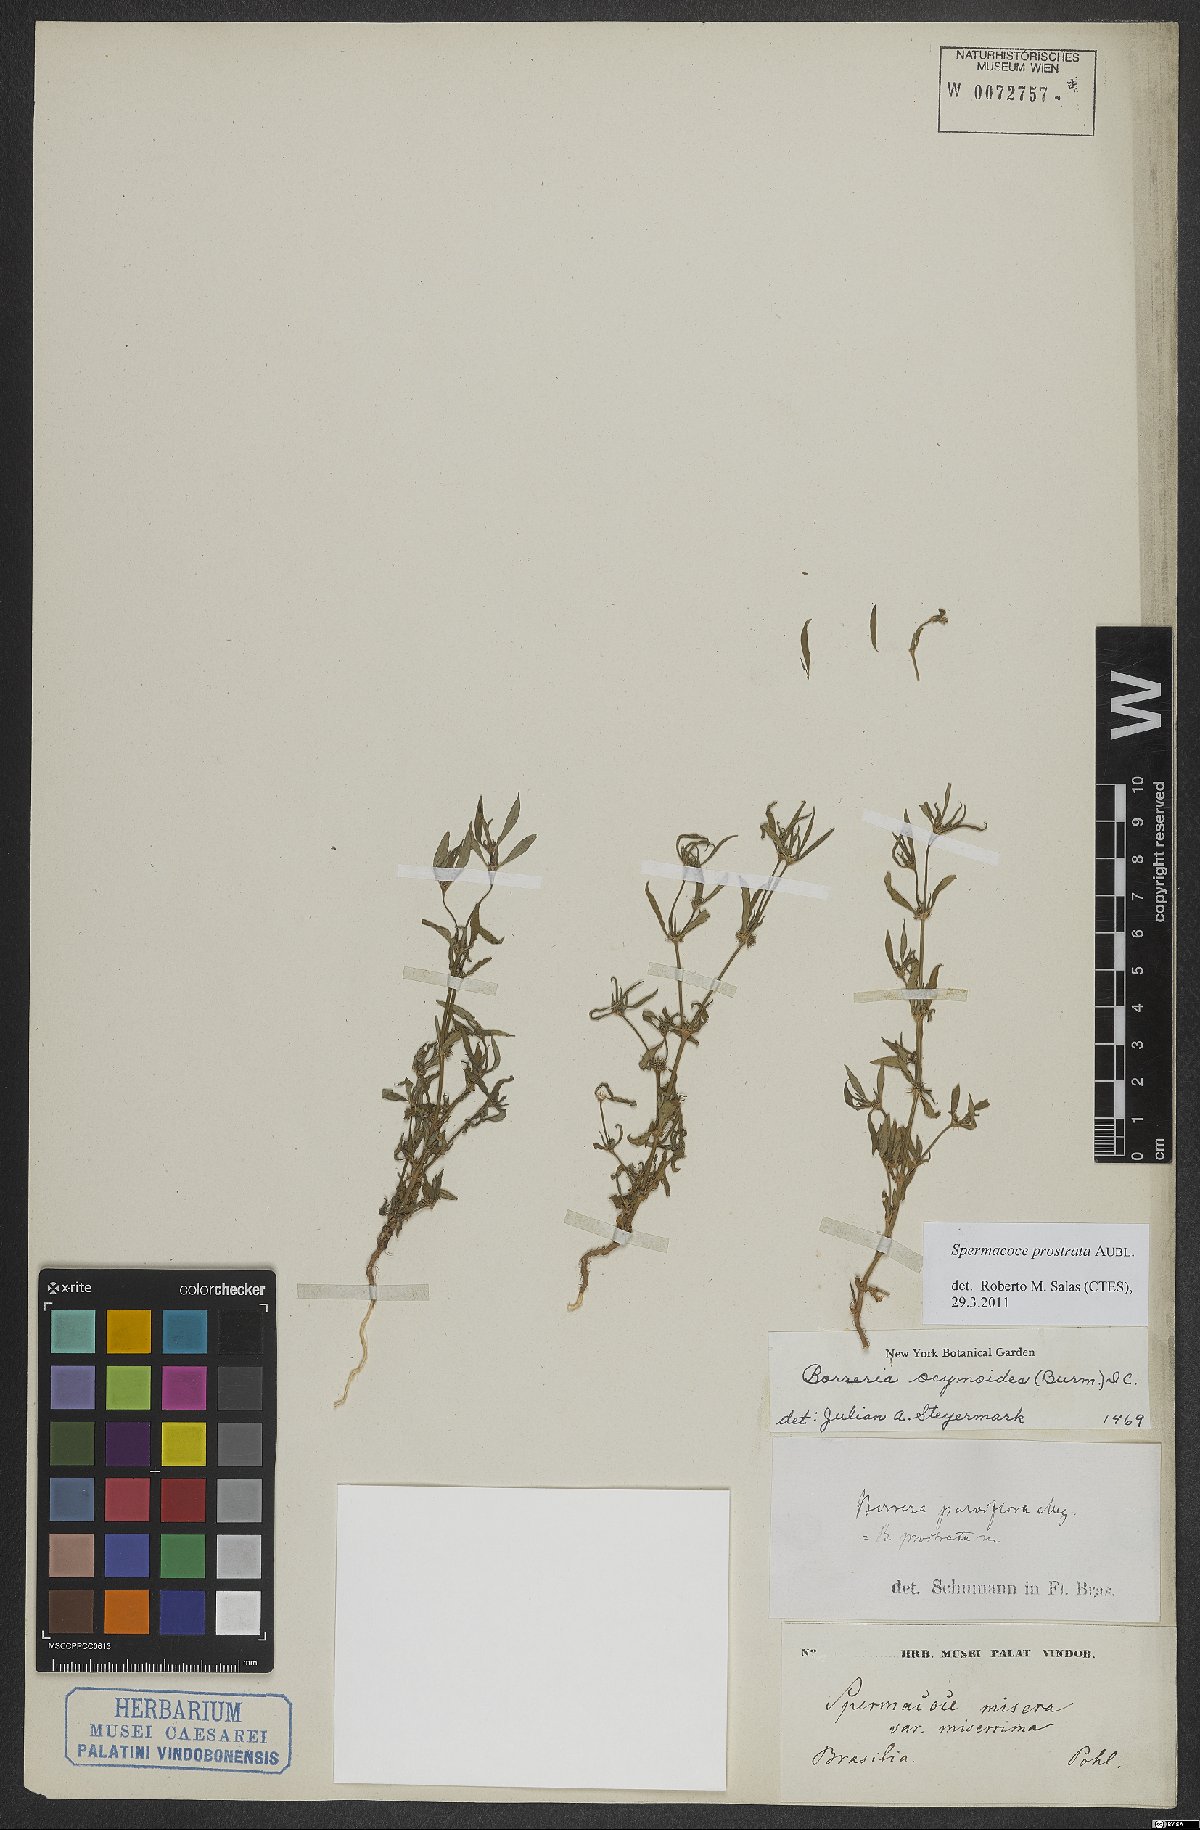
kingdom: Plantae
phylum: Tracheophyta
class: Magnoliopsida
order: Gentianales
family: Rubiaceae
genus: Spermacoce
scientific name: Spermacoce prostrata
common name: Prostrate false buttonweed
